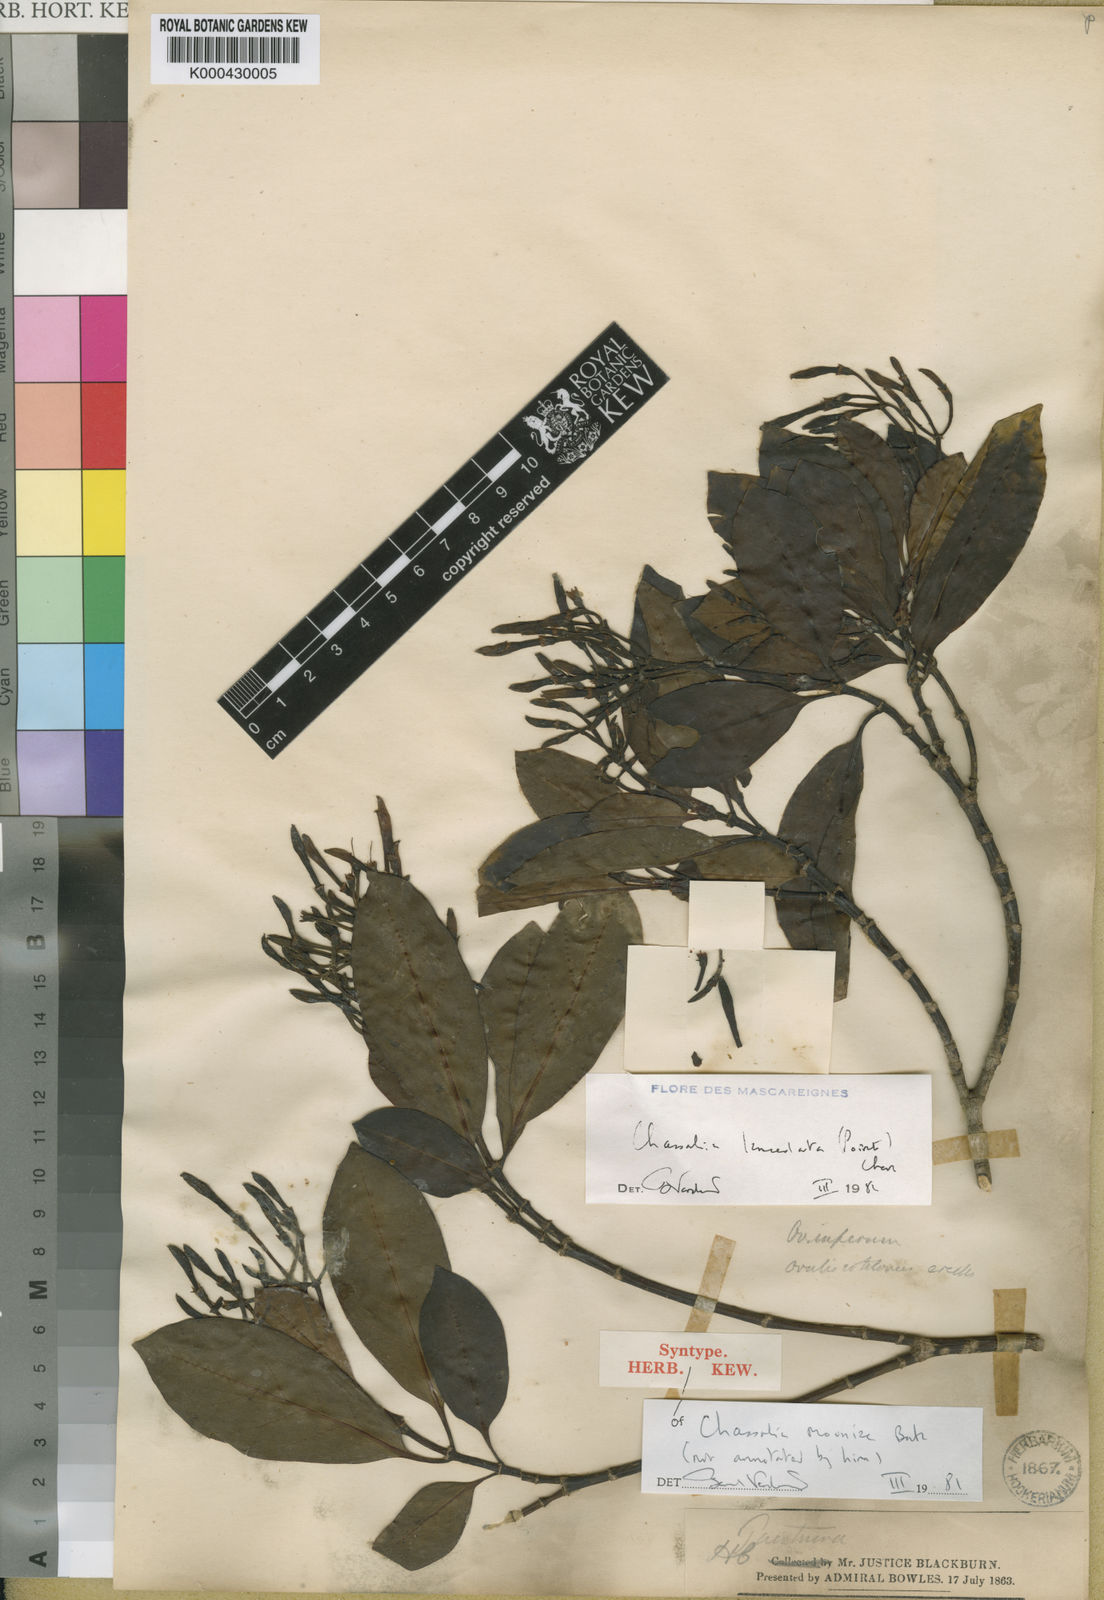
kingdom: Plantae
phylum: Tracheophyta
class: Magnoliopsida
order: Gentianales
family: Rubiaceae
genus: Chassalia
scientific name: Chassalia lanceolata
